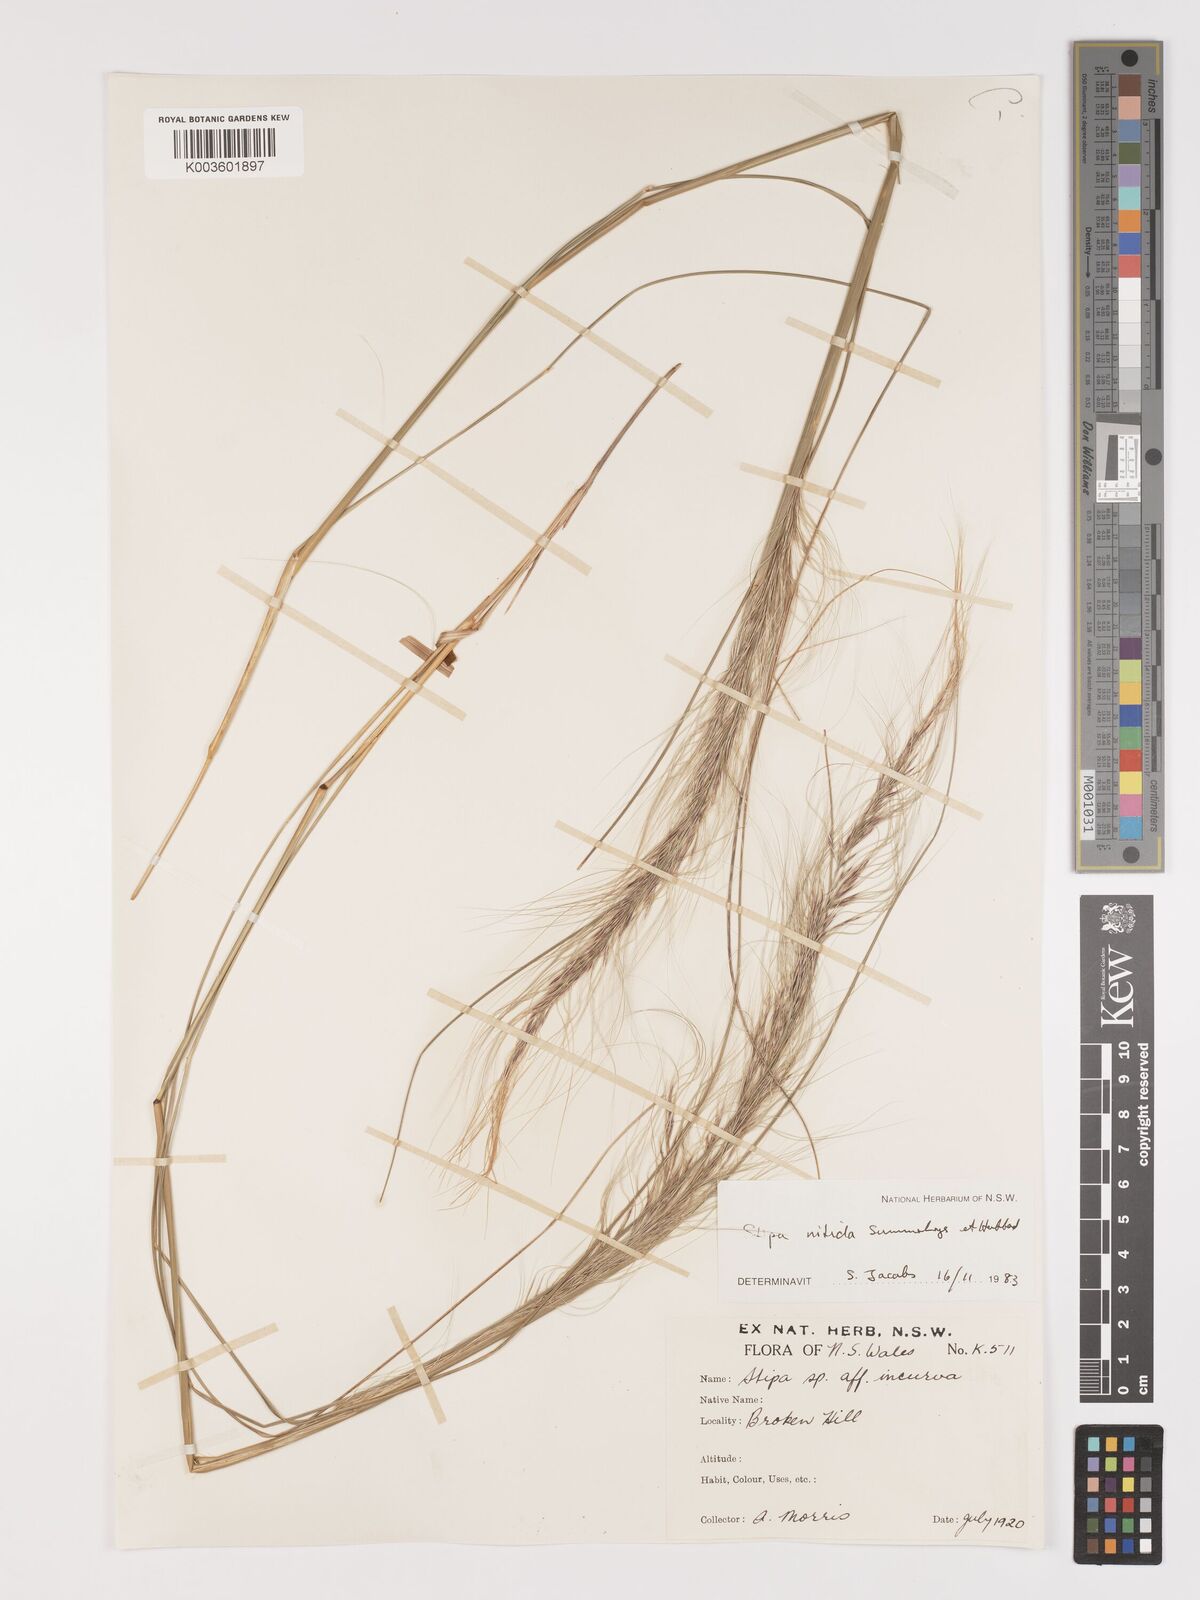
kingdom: Plantae
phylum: Tracheophyta
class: Liliopsida
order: Poales
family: Poaceae
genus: Austrostipa
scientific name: Austrostipa nitida
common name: Balcarra grass
